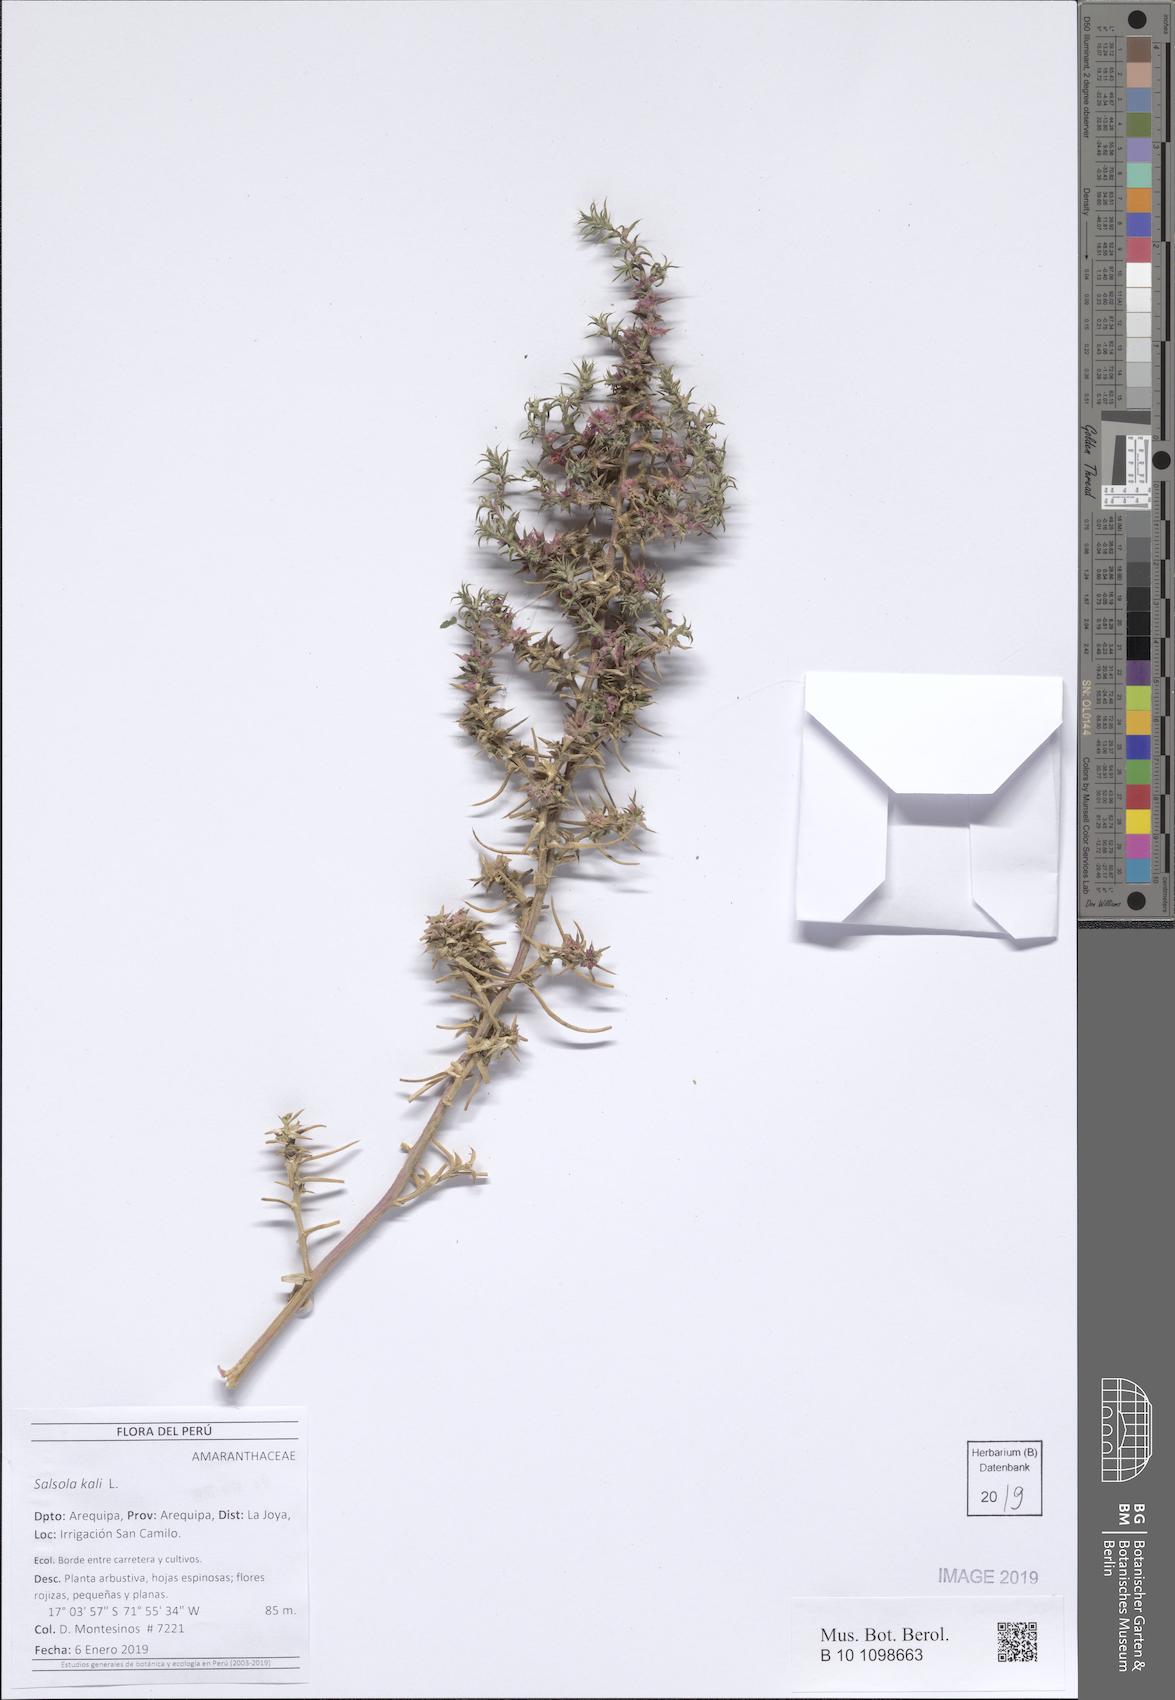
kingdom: Plantae
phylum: Tracheophyta
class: Magnoliopsida
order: Caryophyllales
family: Amaranthaceae
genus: Salsola
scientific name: Salsola kali
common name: Saltwort
